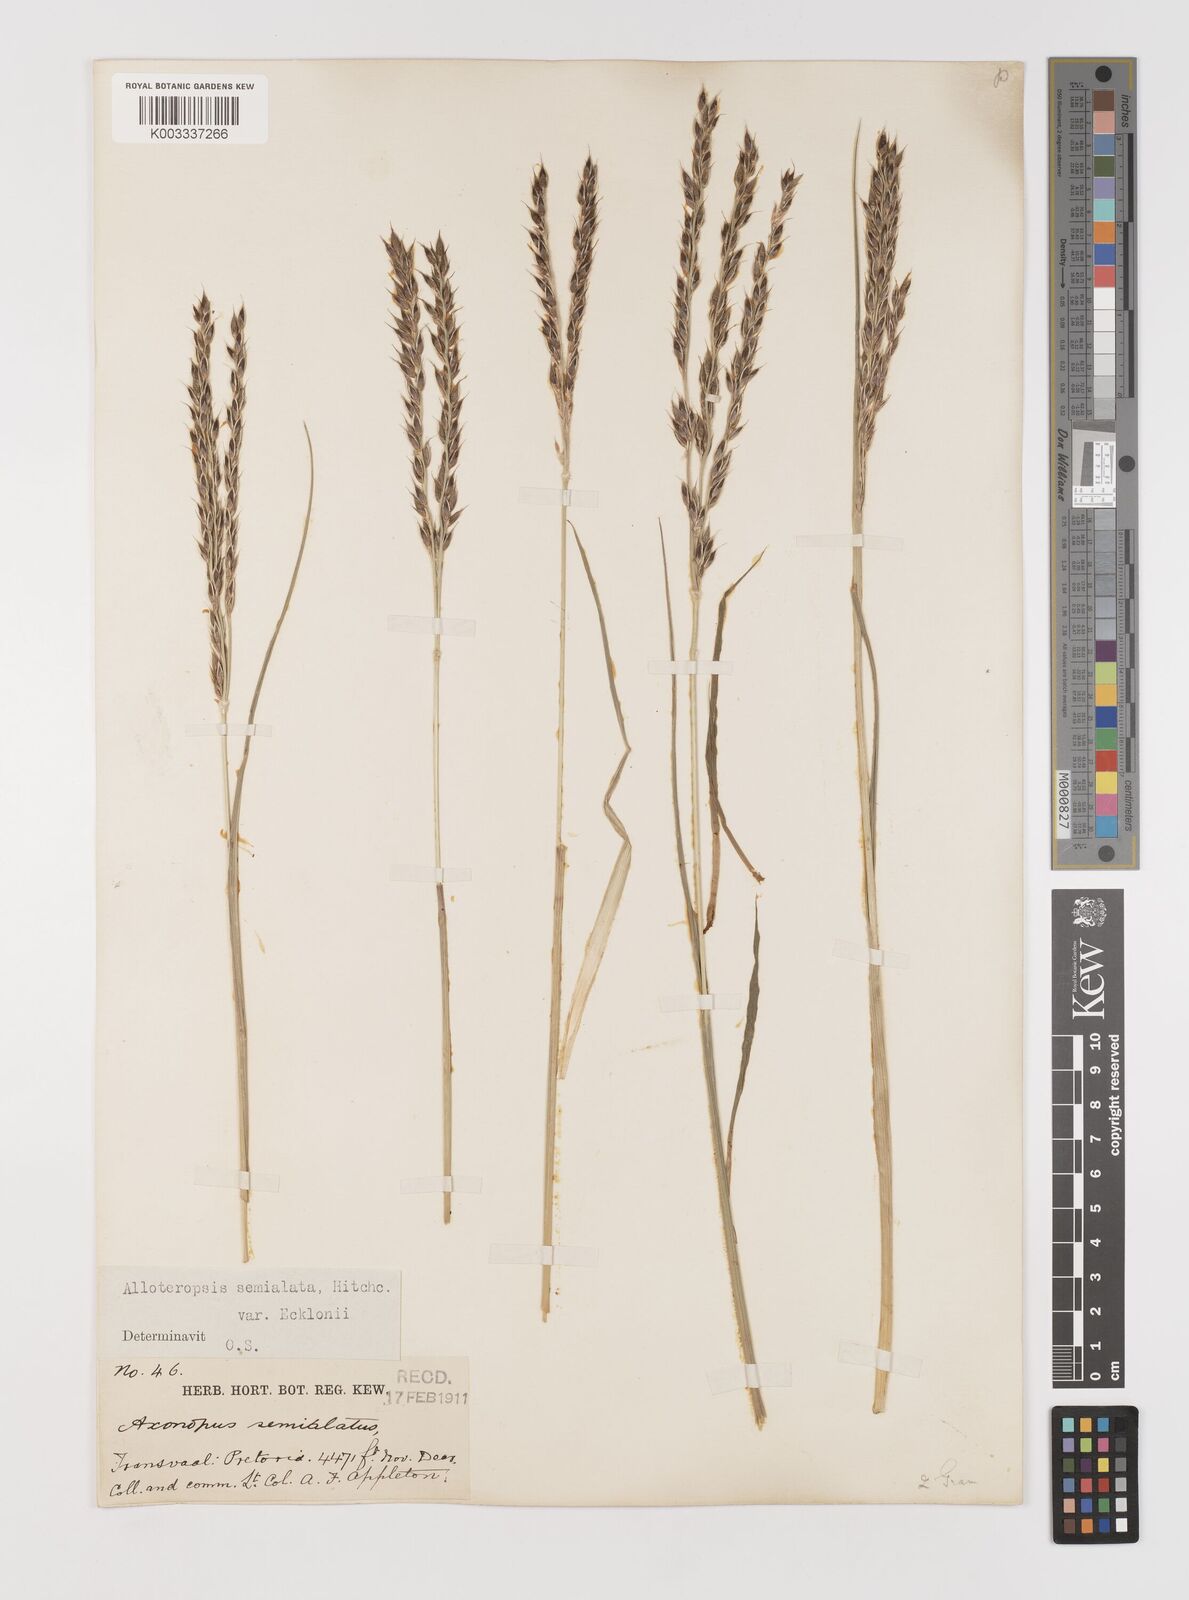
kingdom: Plantae
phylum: Tracheophyta
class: Liliopsida
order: Poales
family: Poaceae
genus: Alloteropsis
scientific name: Alloteropsis semialata
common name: Cockatoo grass
